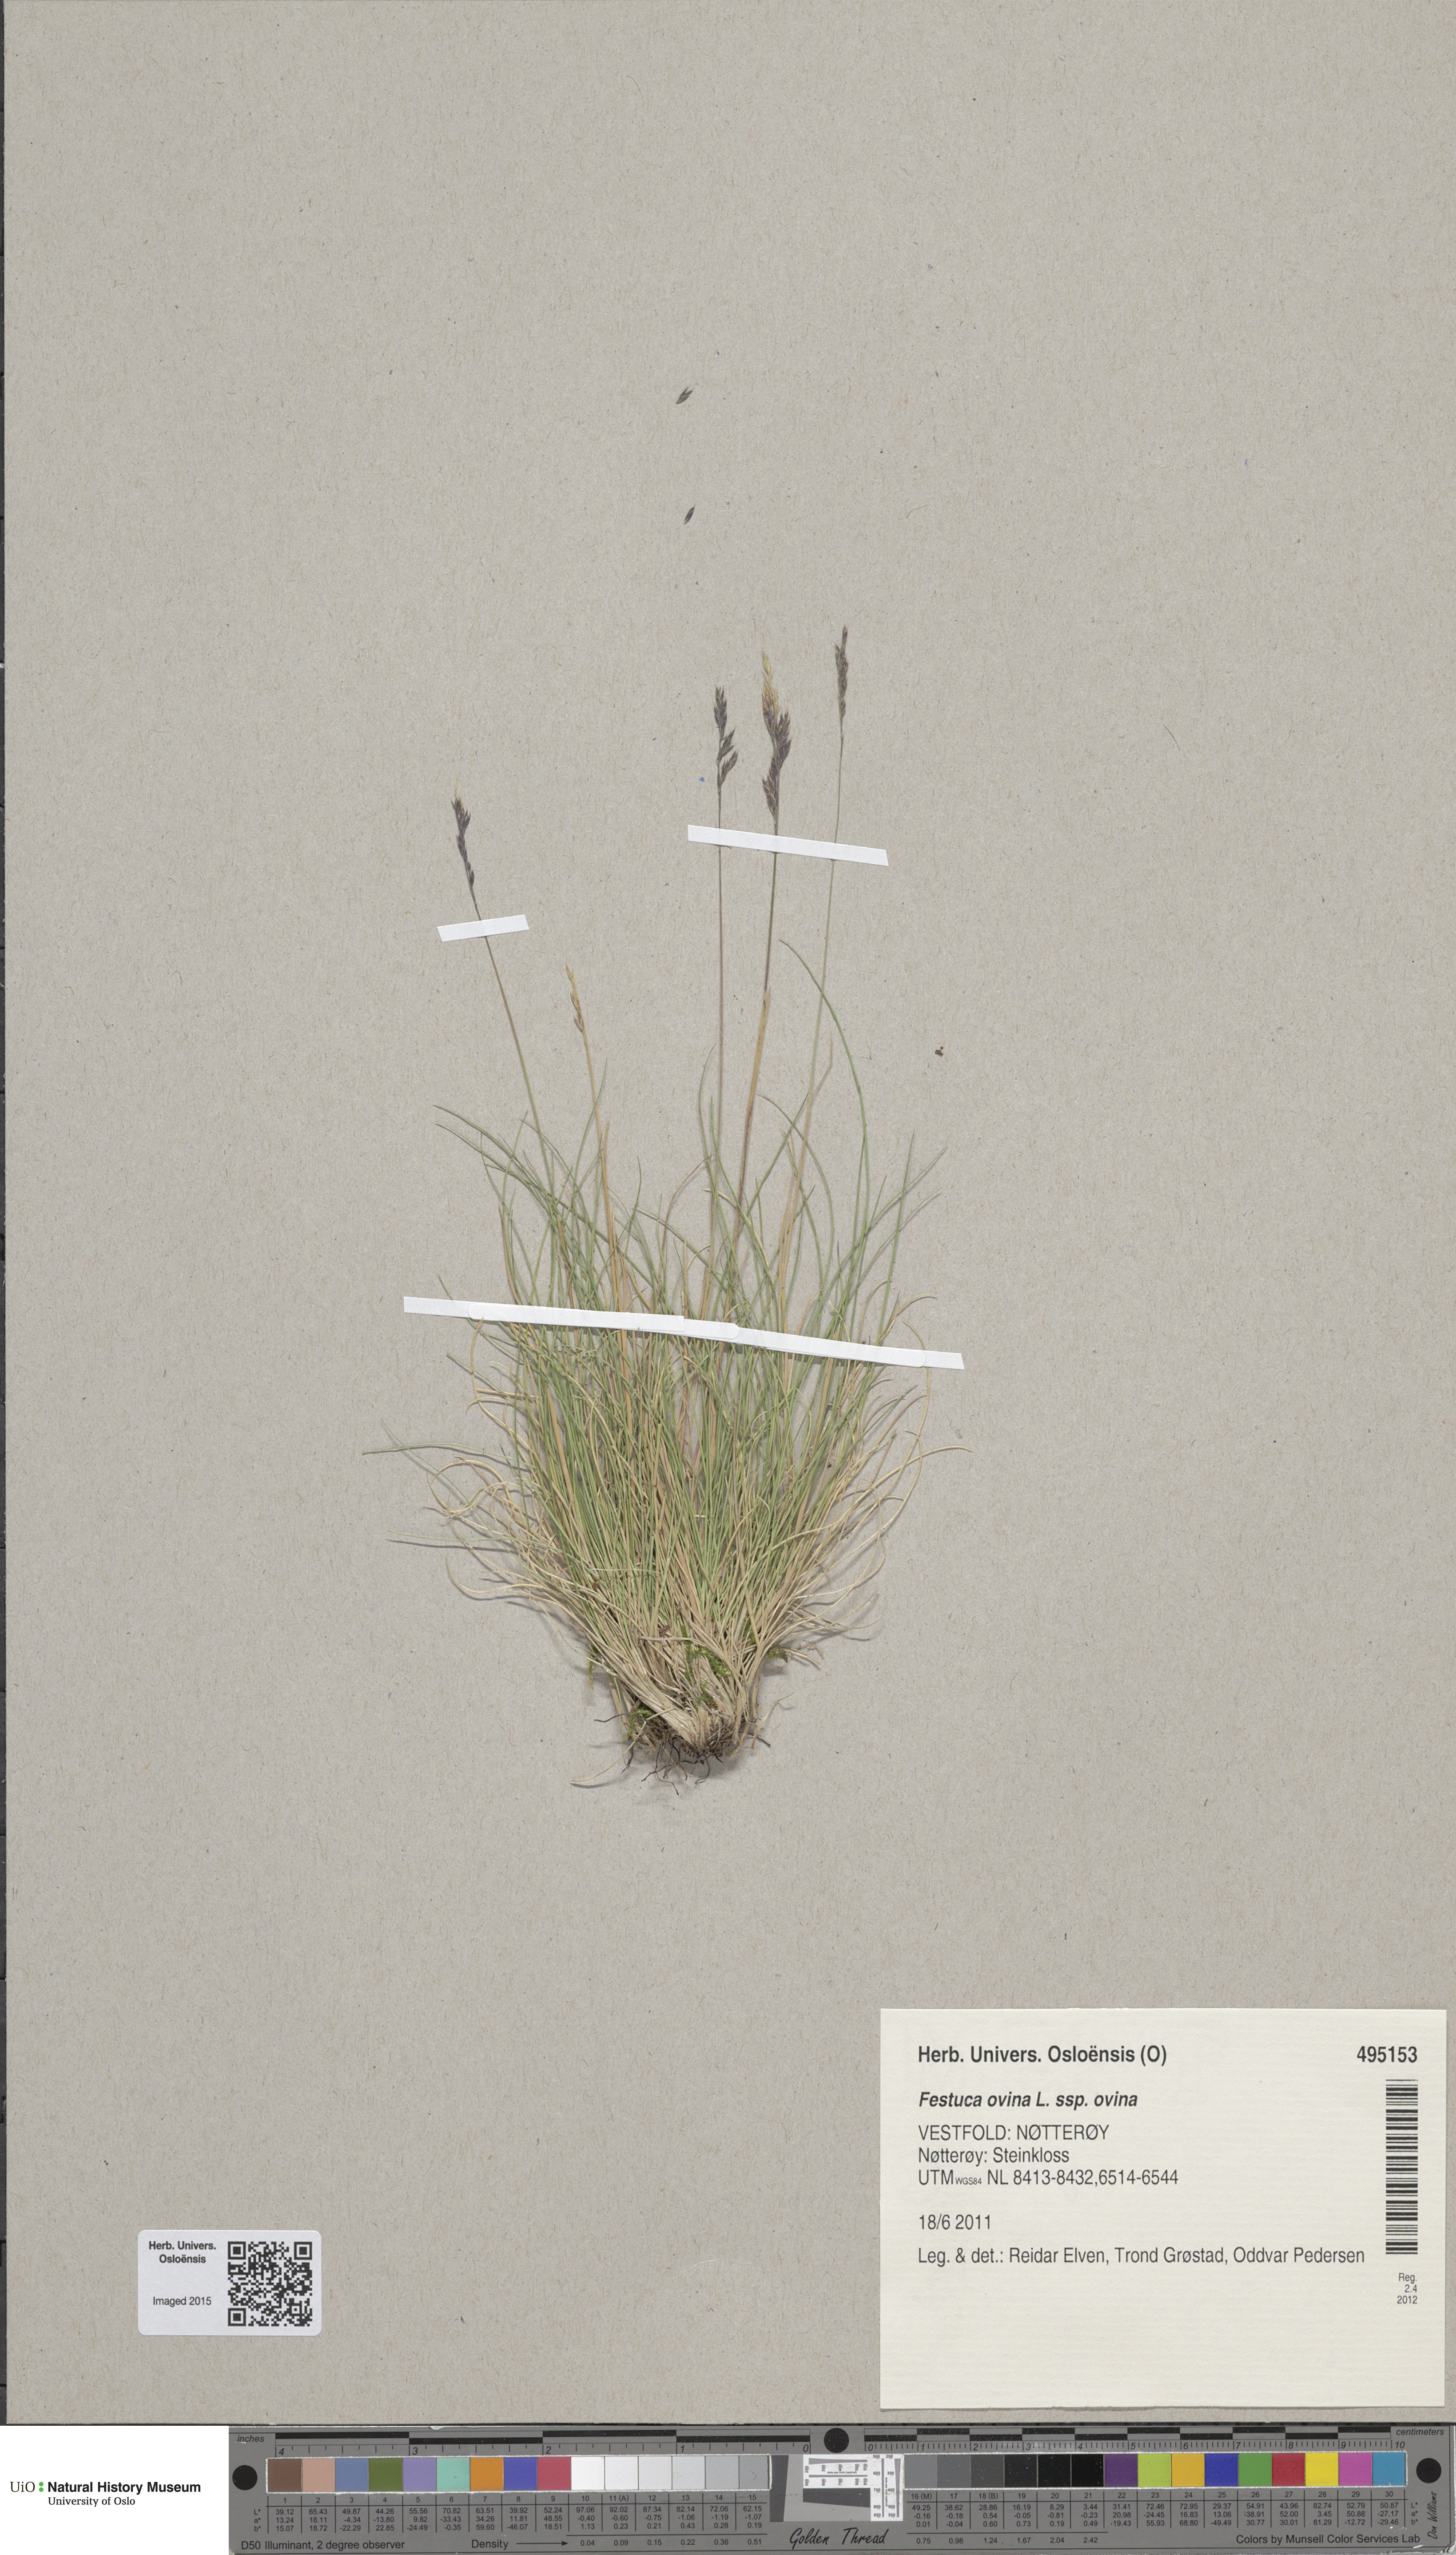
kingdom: Plantae
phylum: Tracheophyta
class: Liliopsida
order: Poales
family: Poaceae
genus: Festuca
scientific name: Festuca ovina
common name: Sheep fescue
